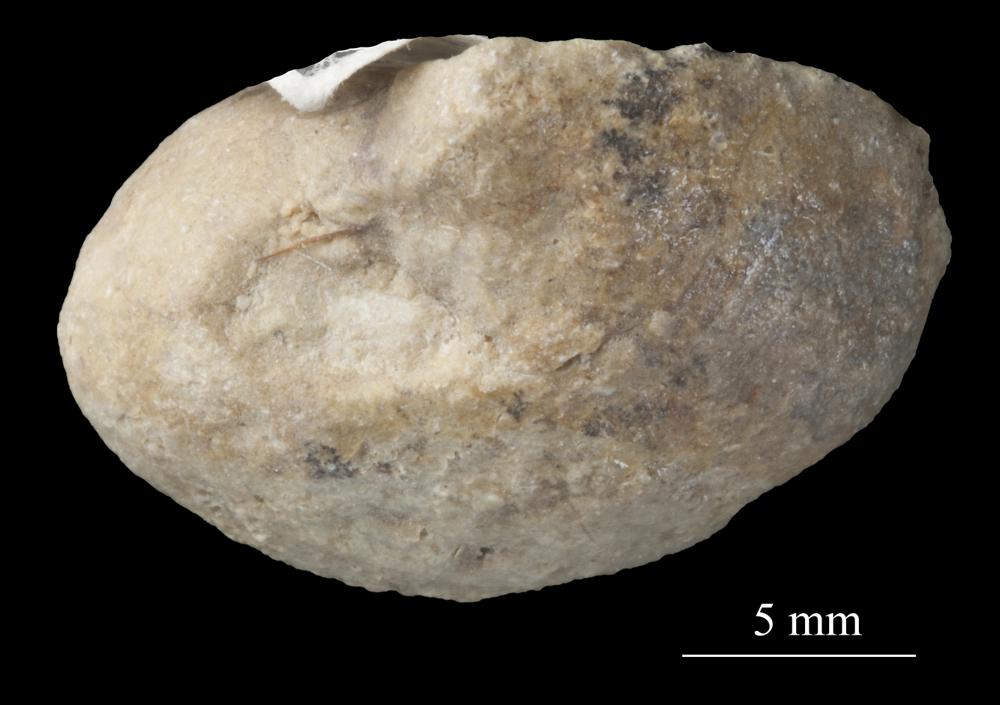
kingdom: Animalia
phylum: Mollusca
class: Gastropoda
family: Bellerophontidae
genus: Bellerophon
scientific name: Bellerophon
